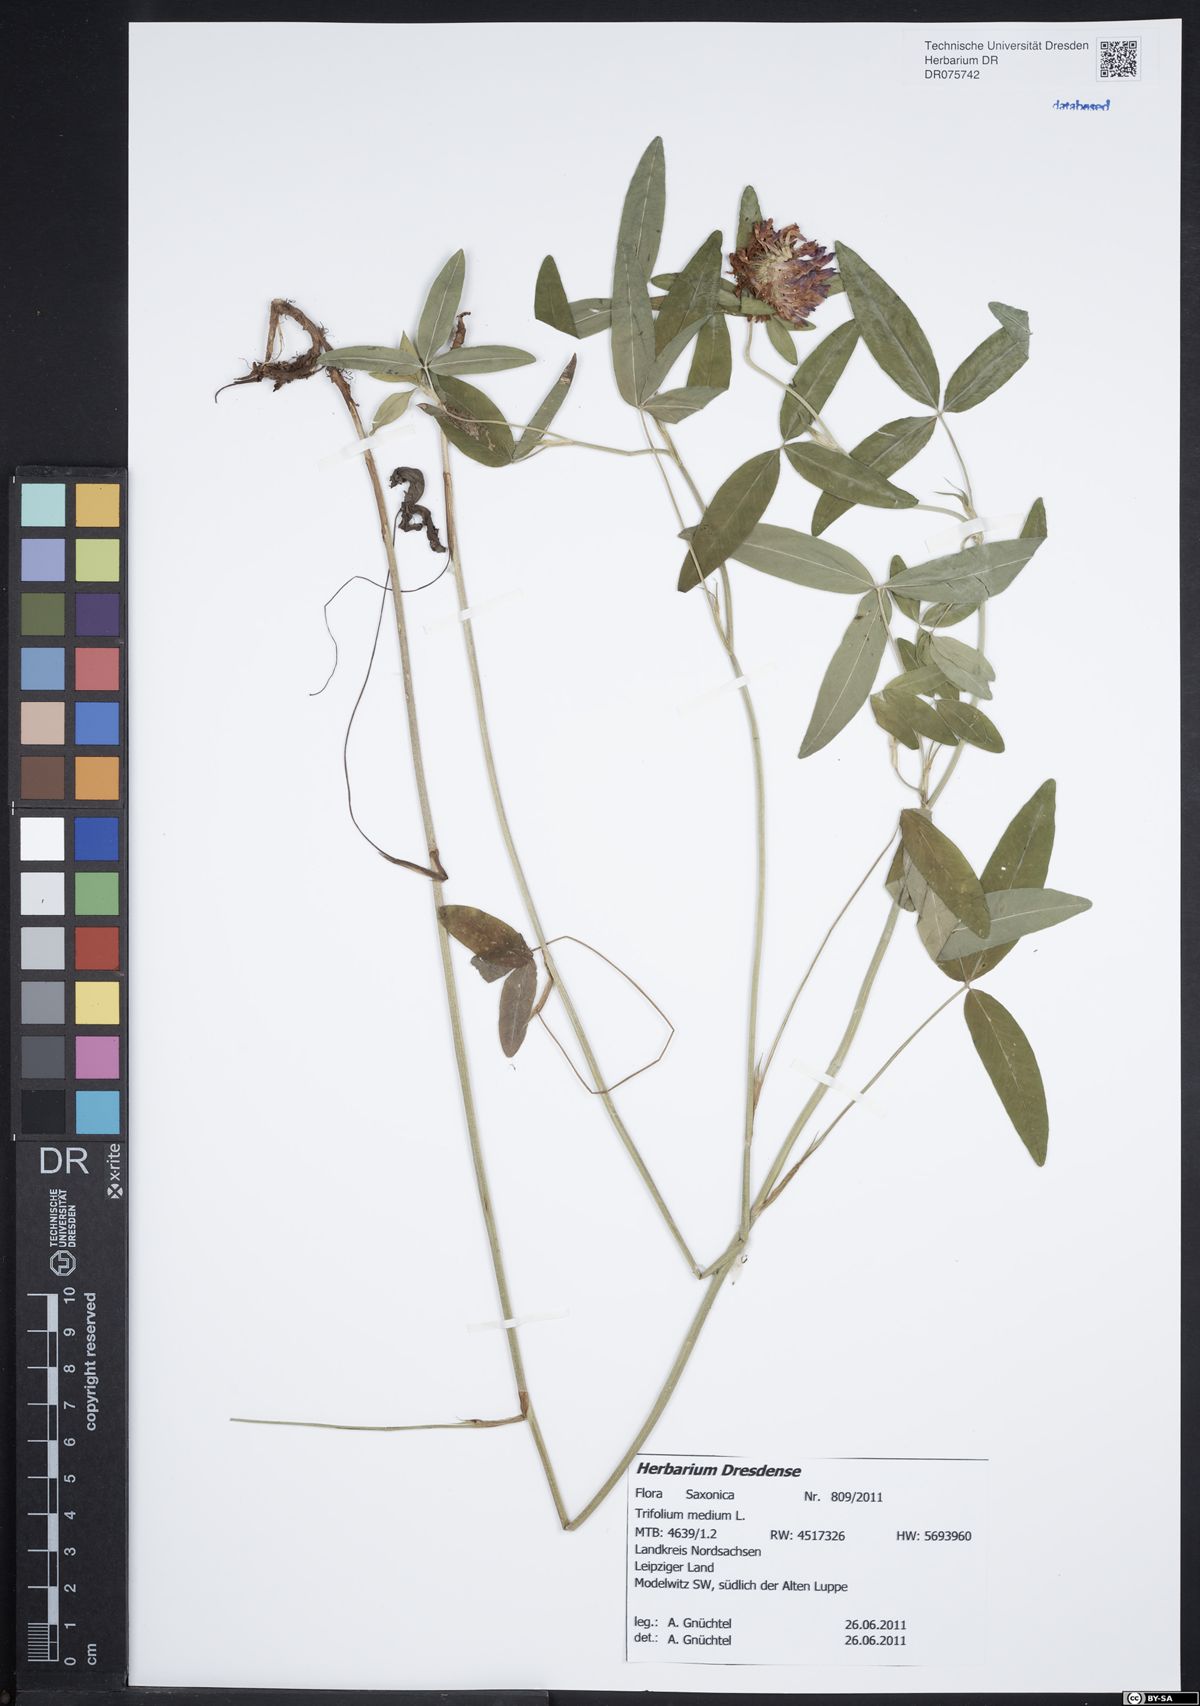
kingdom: Plantae
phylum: Tracheophyta
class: Magnoliopsida
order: Fabales
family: Fabaceae
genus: Trifolium
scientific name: Trifolium medium
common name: Zigzag clover
